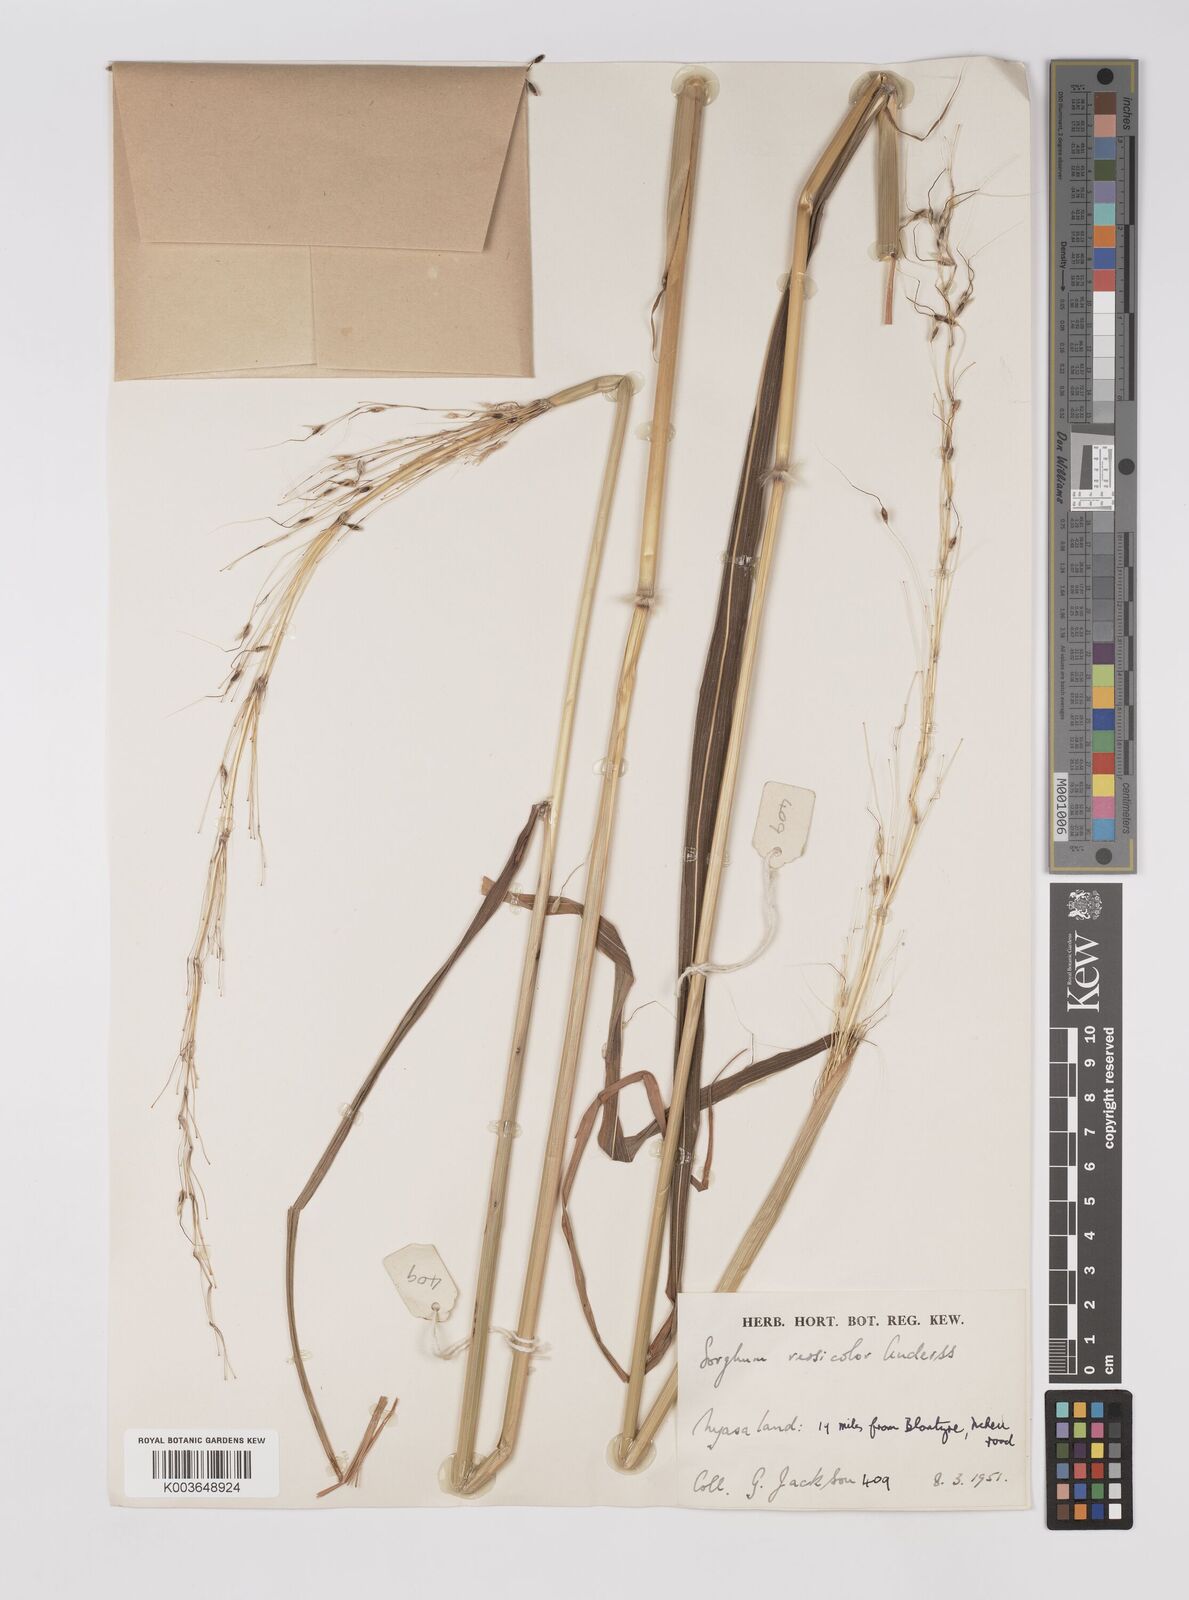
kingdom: Plantae
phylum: Tracheophyta
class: Liliopsida
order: Poales
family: Poaceae
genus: Sarga
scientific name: Sarga versicolor
